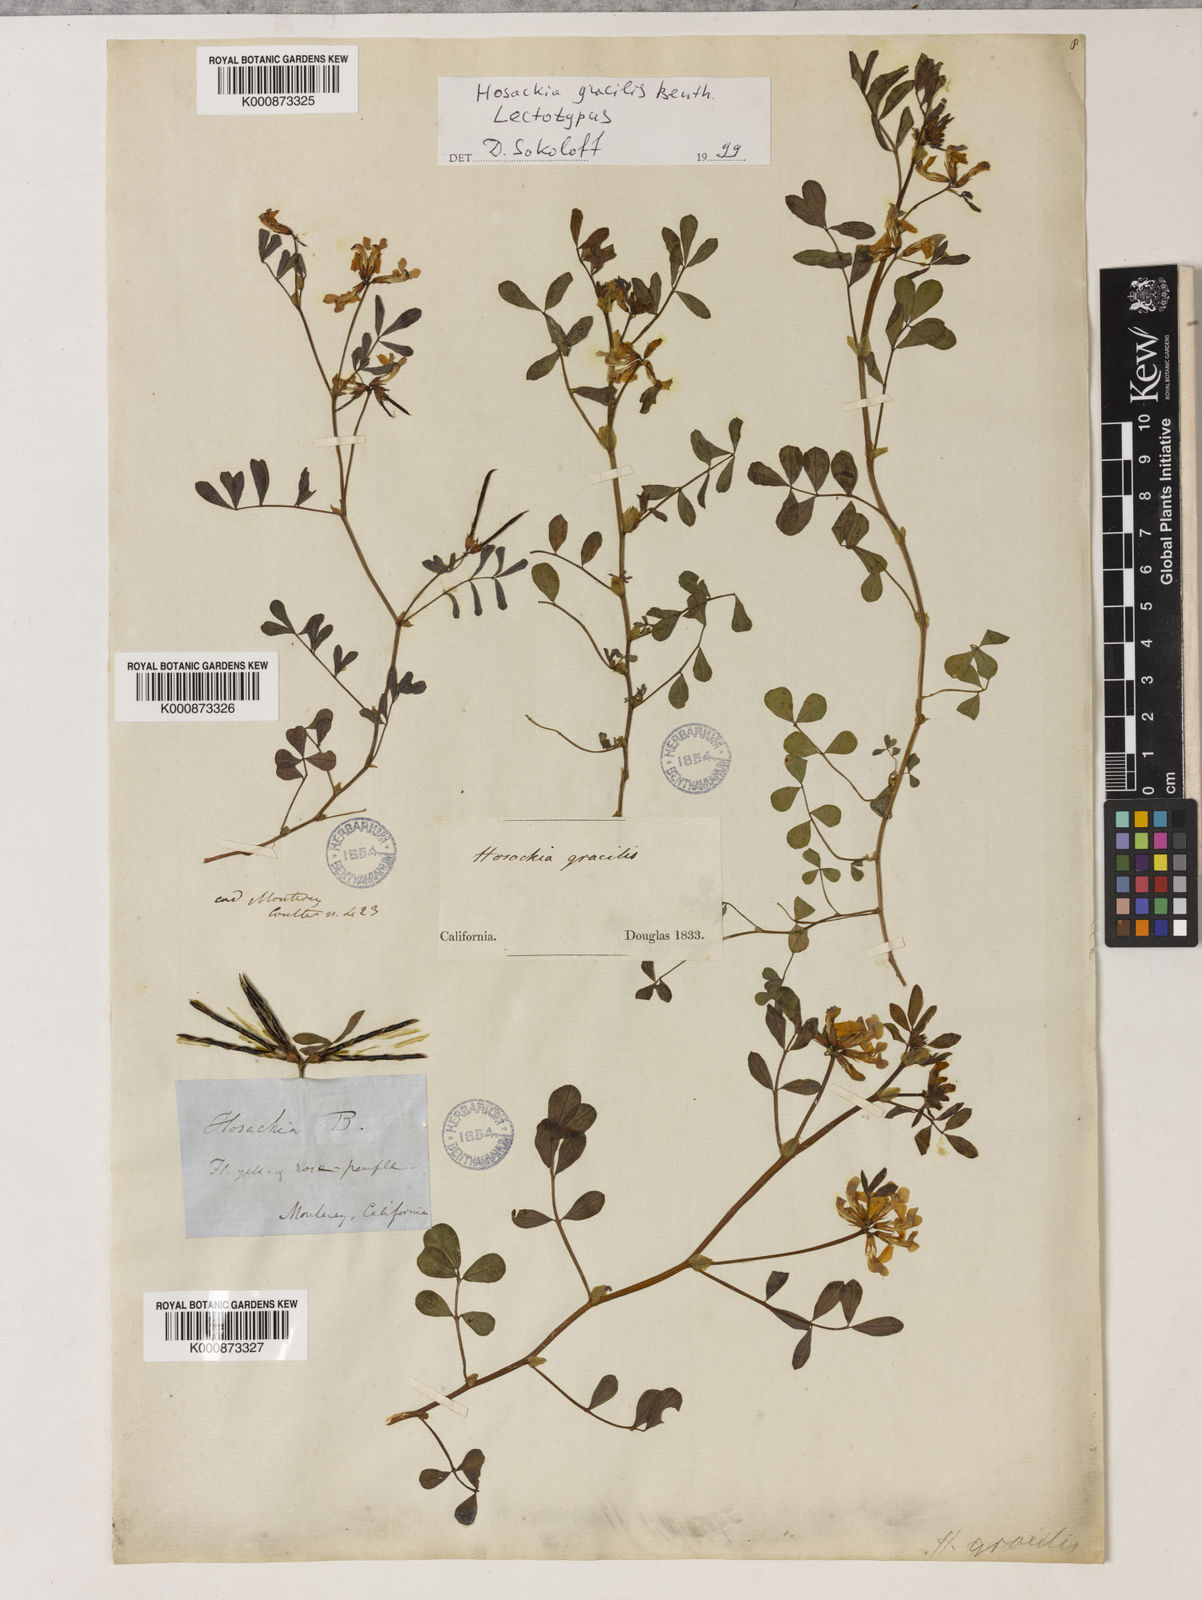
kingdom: Plantae
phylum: Tracheophyta
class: Magnoliopsida
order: Fabales
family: Fabaceae
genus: Hosackia
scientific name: Hosackia gracilis
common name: Seaside bird's-foot lotus
